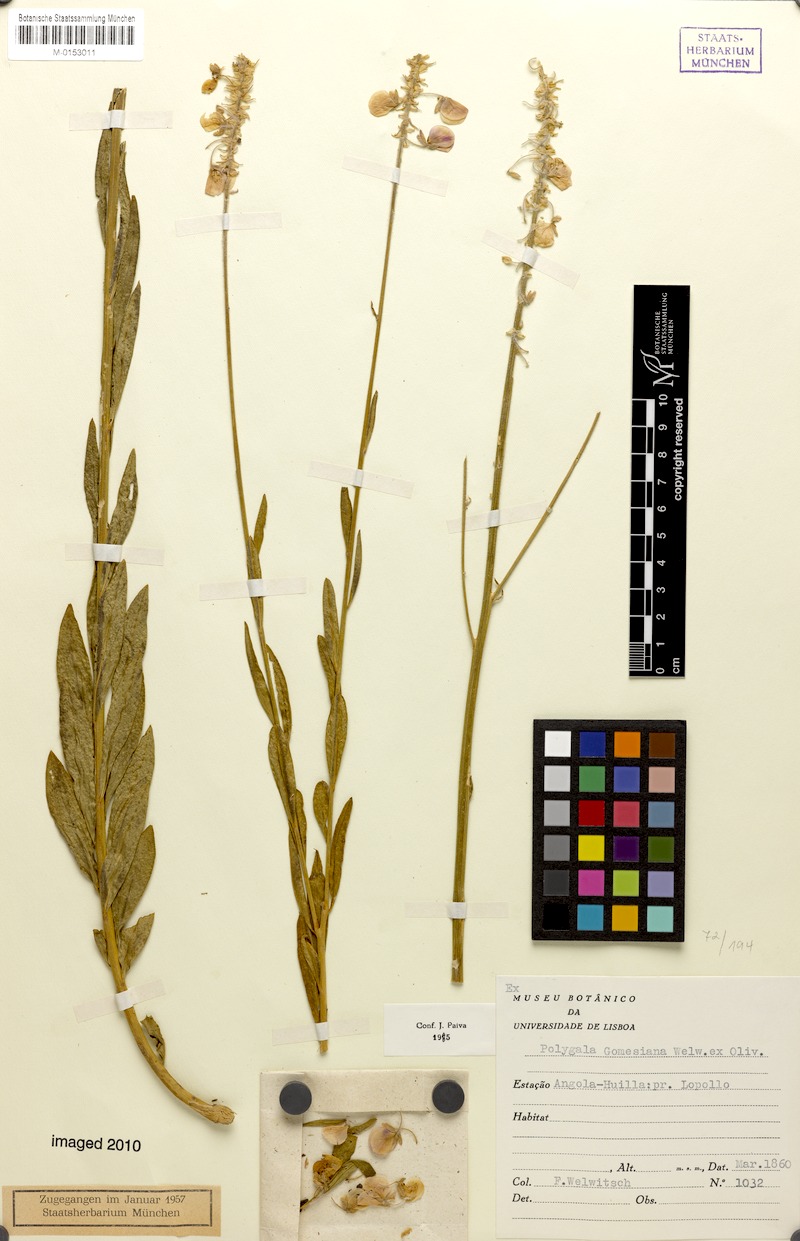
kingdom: Plantae
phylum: Tracheophyta
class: Magnoliopsida
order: Fabales
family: Polygalaceae
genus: Polygala
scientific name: Polygala gomesiana
